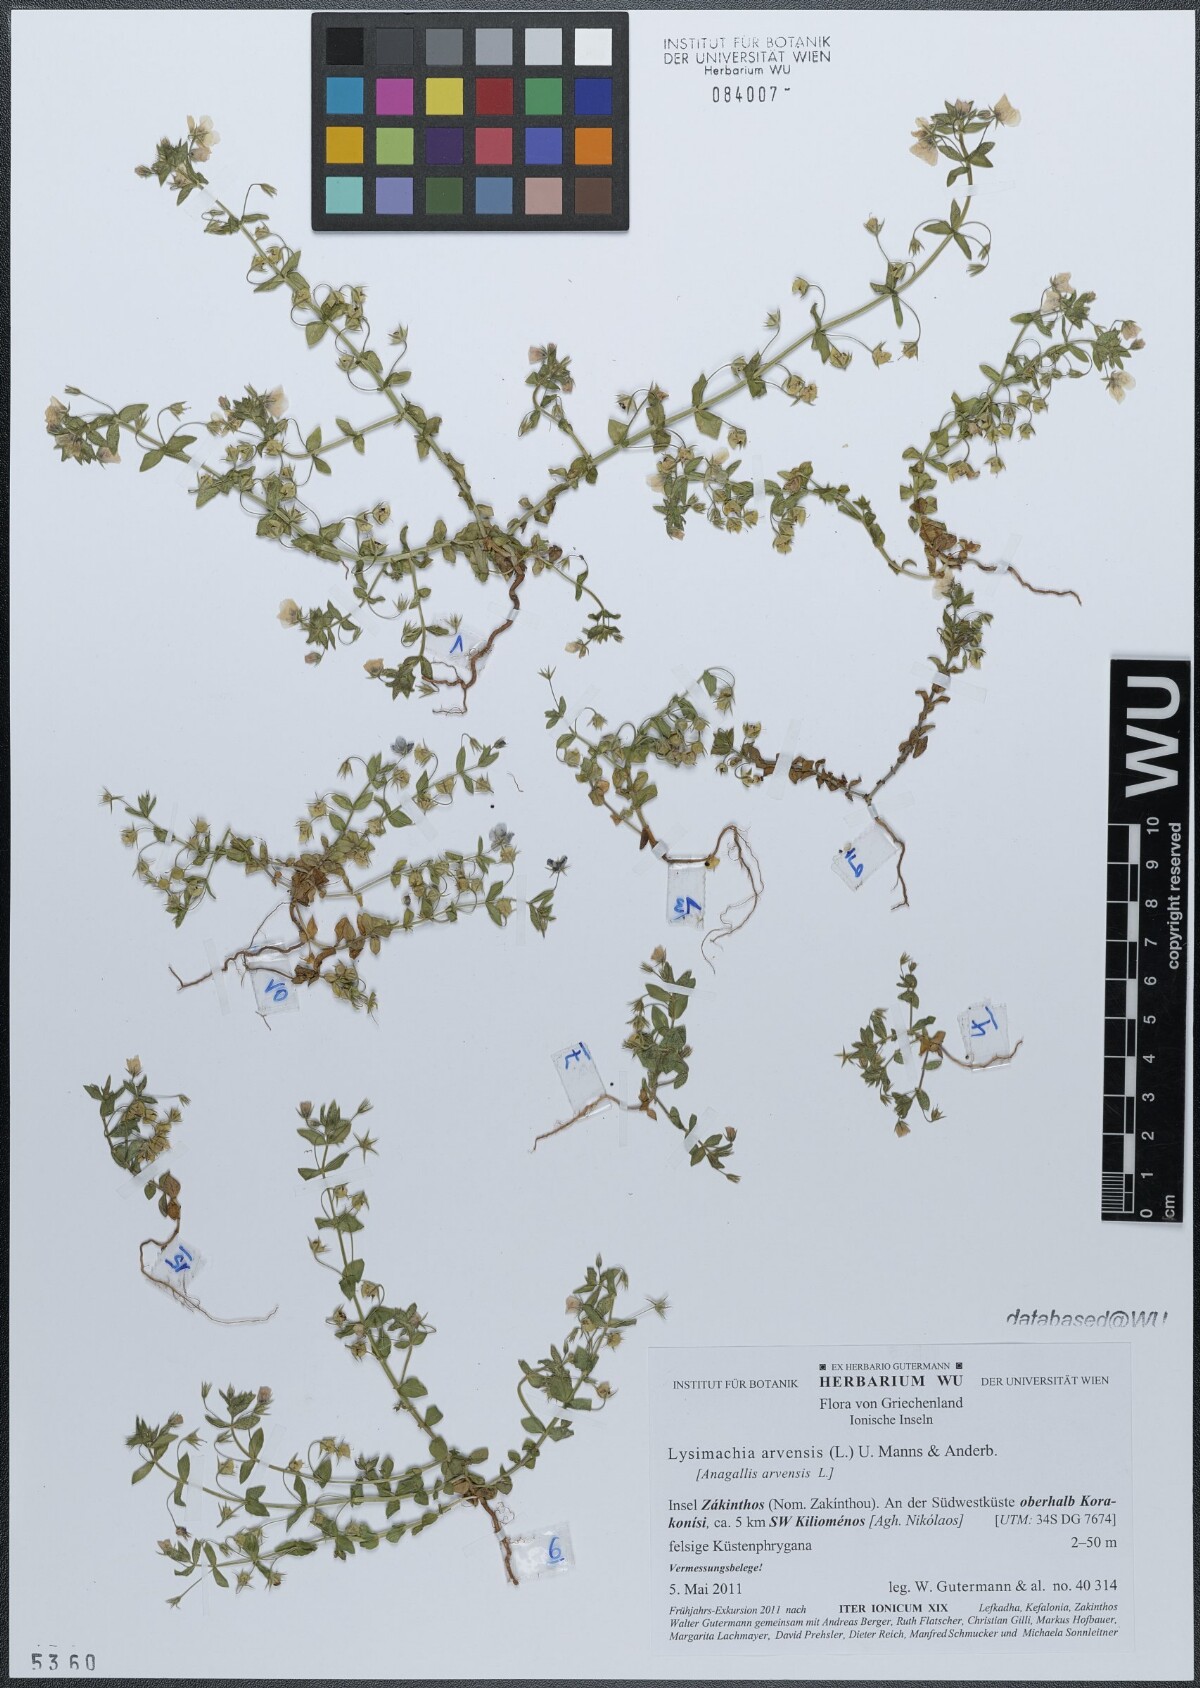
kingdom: Plantae
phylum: Tracheophyta
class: Magnoliopsida
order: Ericales
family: Primulaceae
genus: Lysimachia
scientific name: Lysimachia arvensis
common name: Scarlet pimpernel
